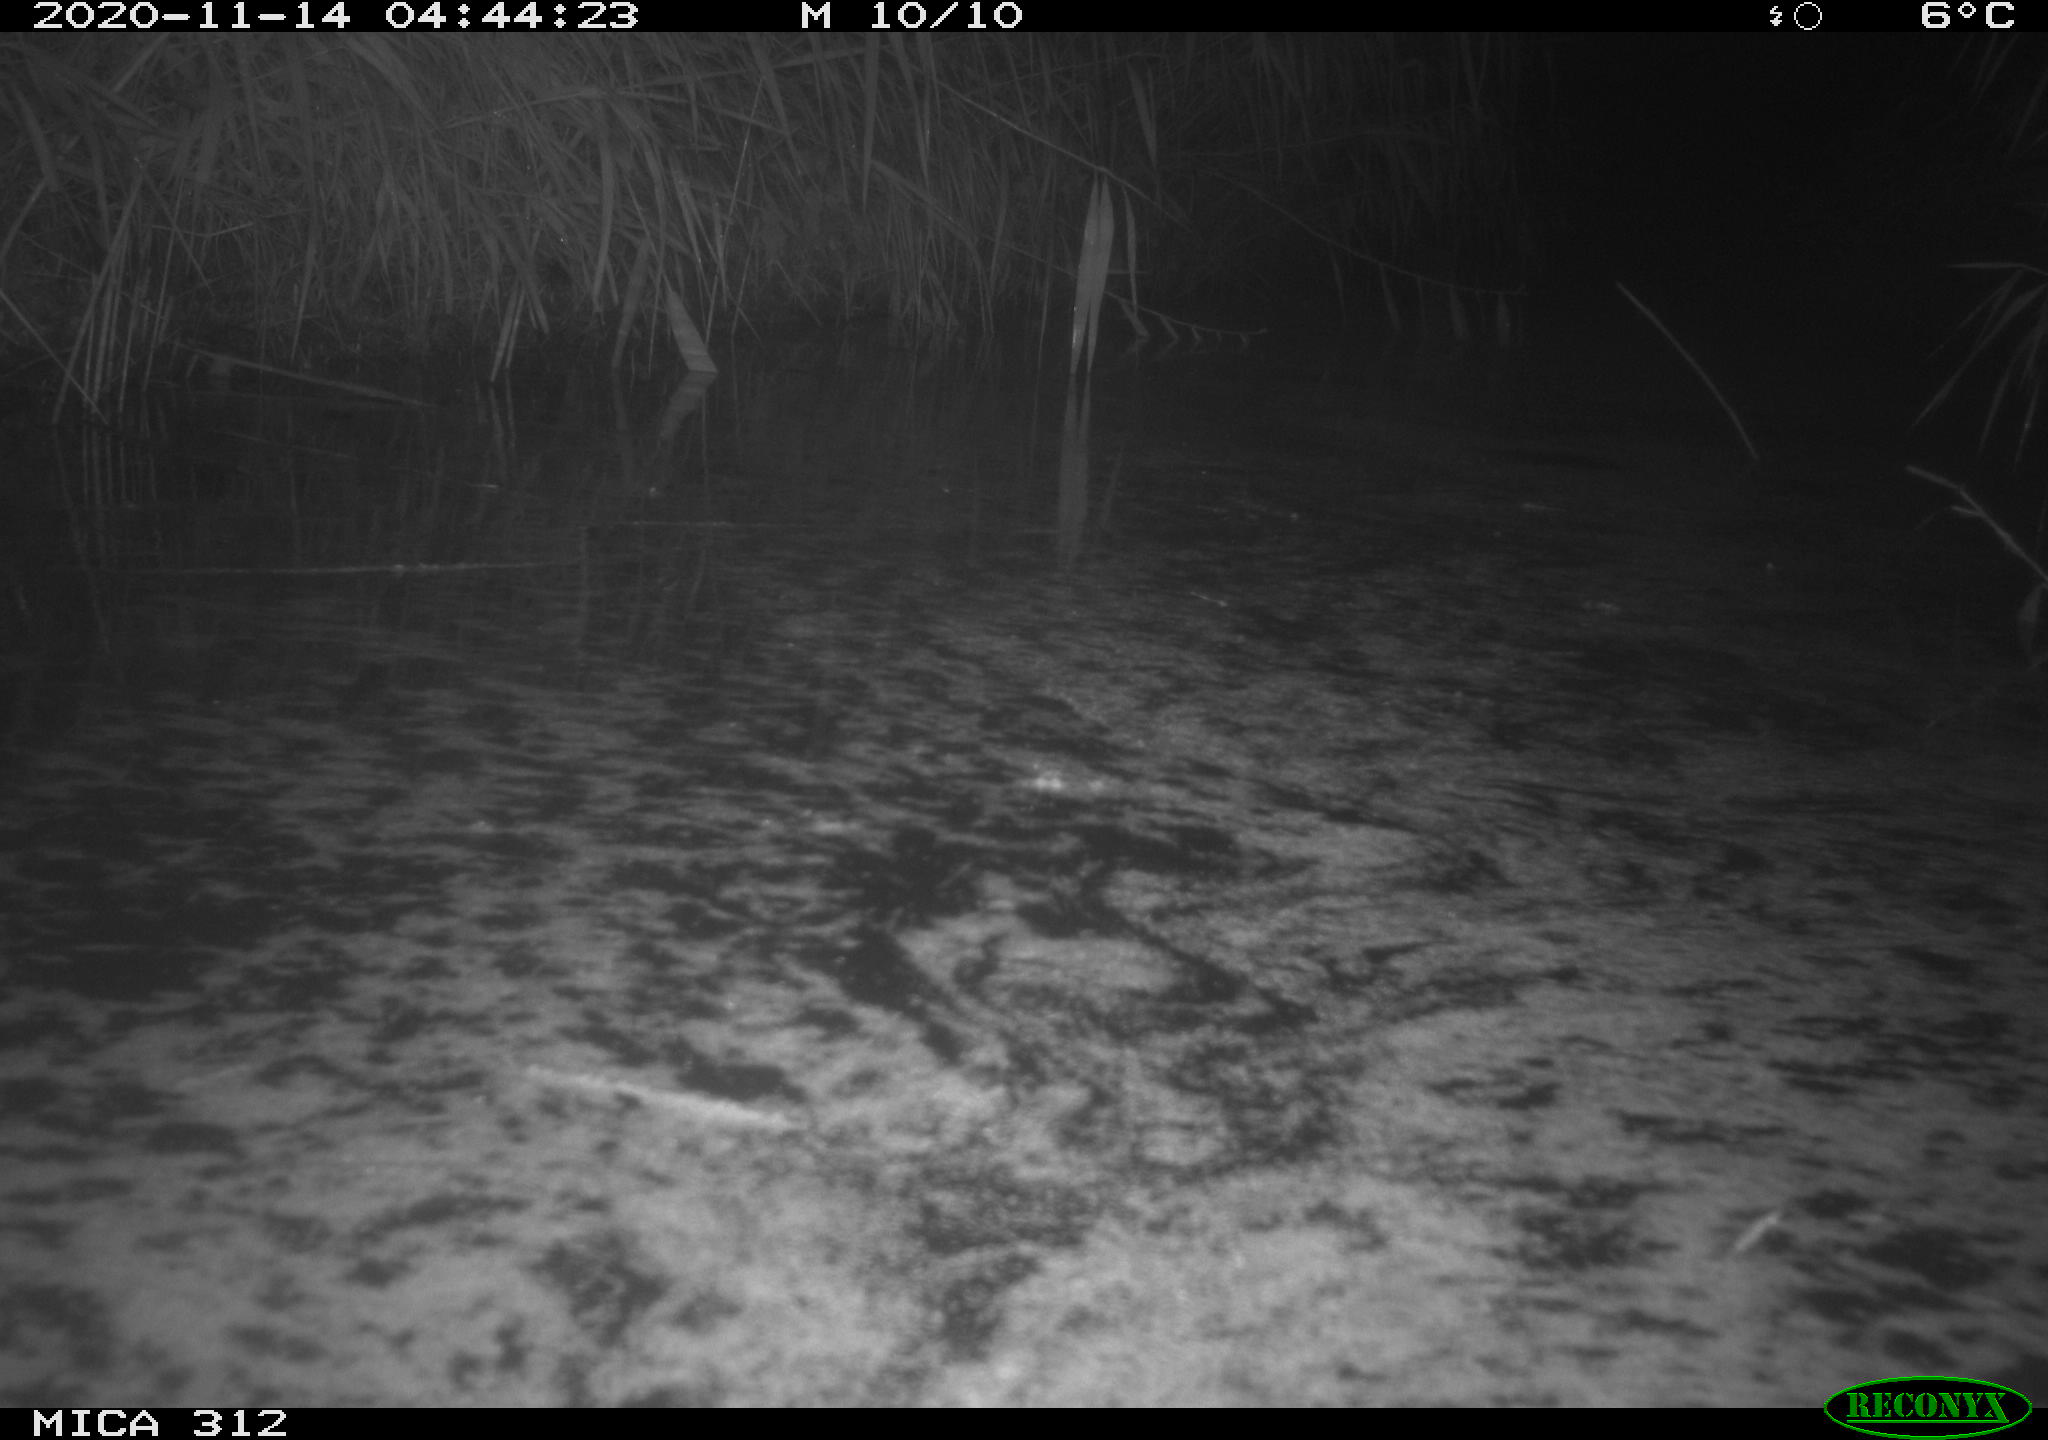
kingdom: Animalia
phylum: Chordata
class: Mammalia
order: Rodentia
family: Muridae
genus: Rattus
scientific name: Rattus norvegicus
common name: Brown rat
